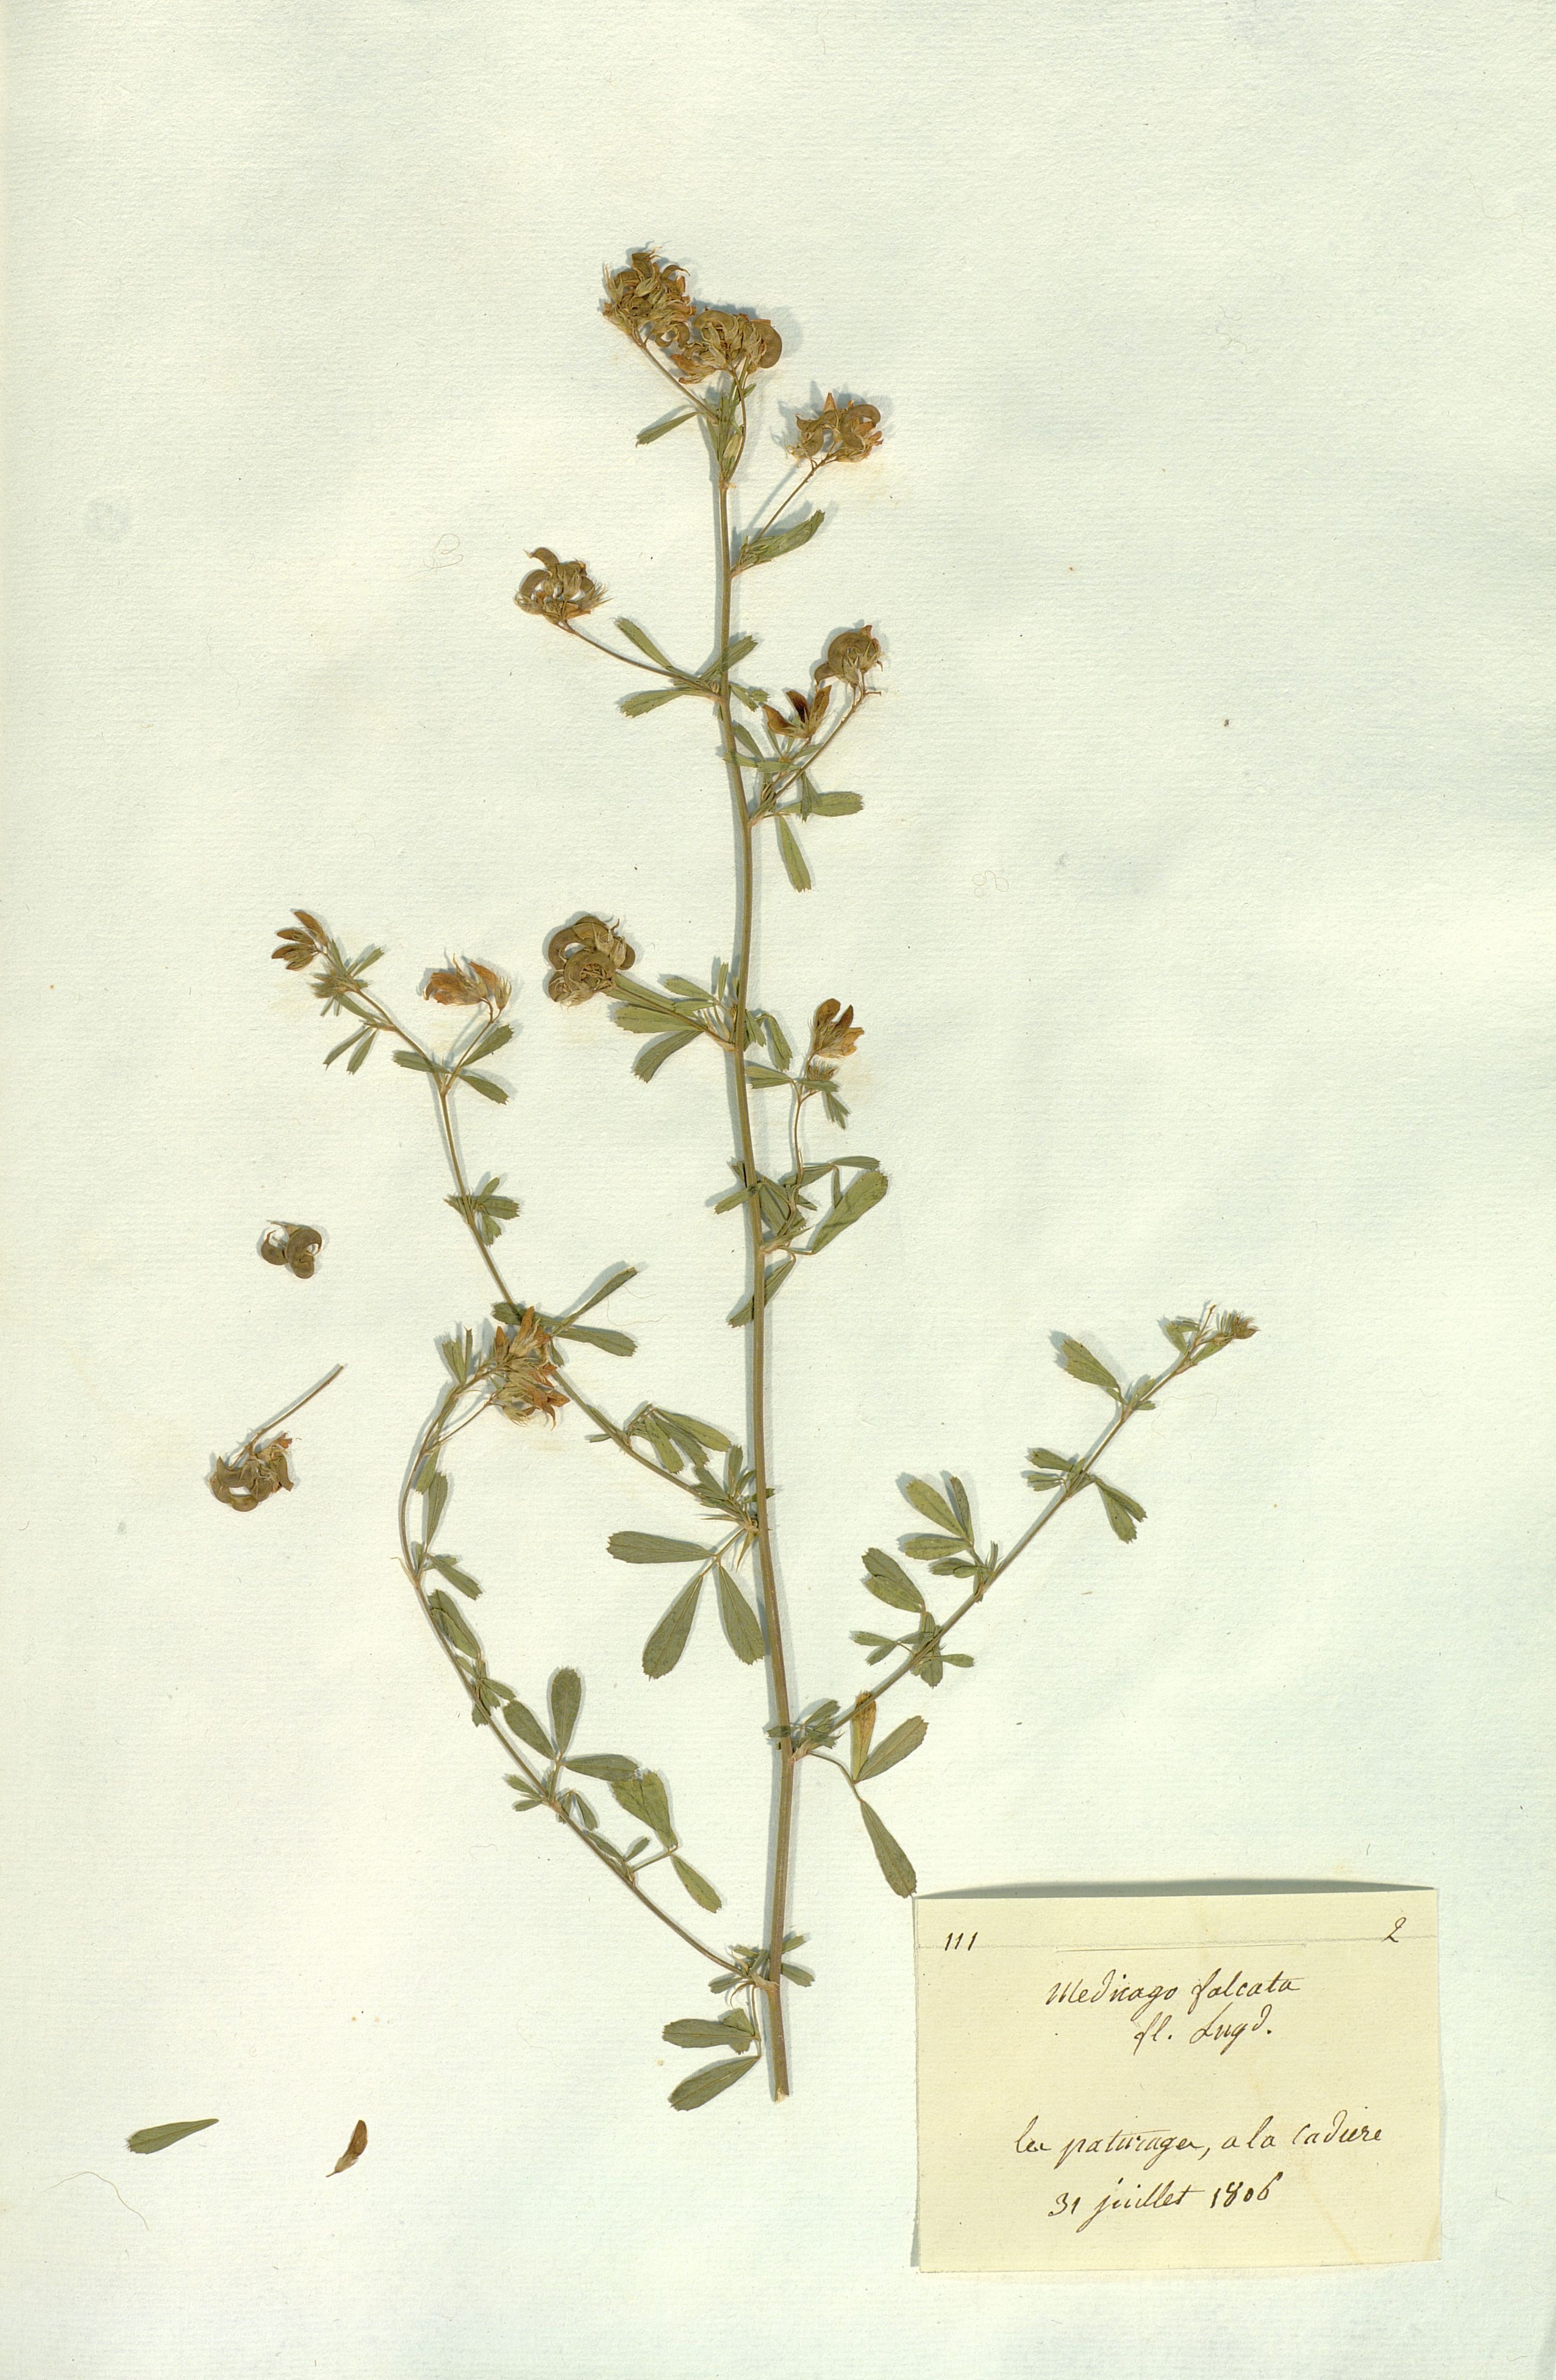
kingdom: Plantae
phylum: Tracheophyta
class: Magnoliopsida
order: Fabales
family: Fabaceae
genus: Medicago
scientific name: Medicago falcata
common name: Sickle medick
